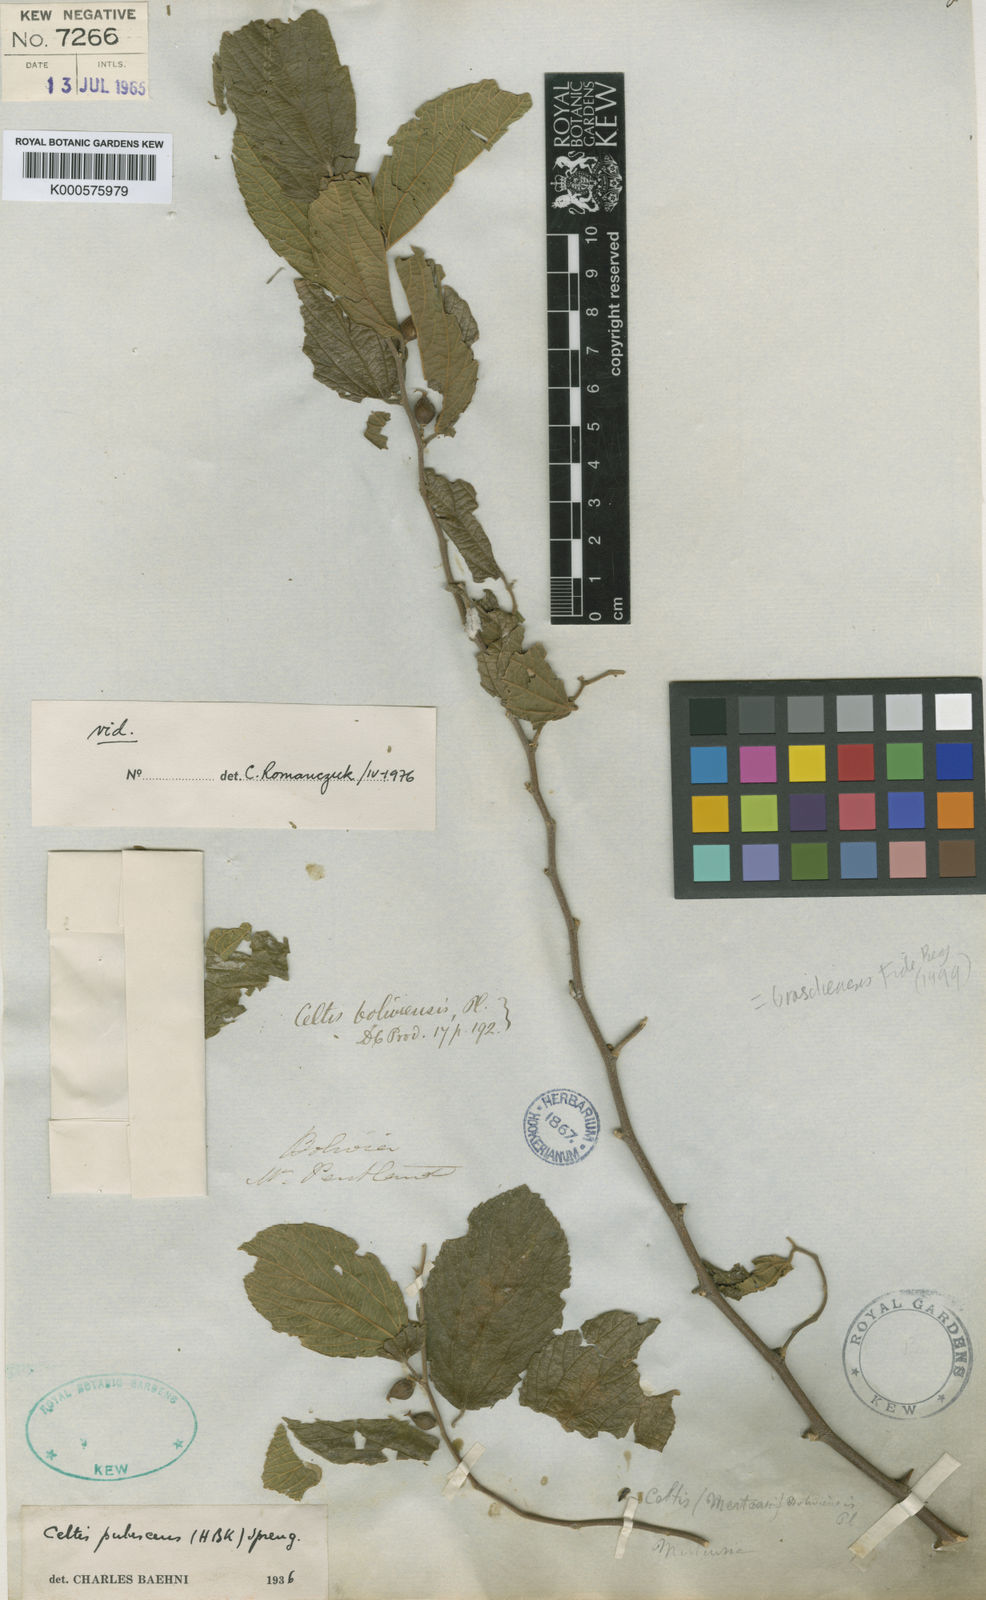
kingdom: Plantae
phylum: Tracheophyta
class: Magnoliopsida
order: Rosales
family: Cannabaceae
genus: Celtis
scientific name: Celtis brasiliensis
